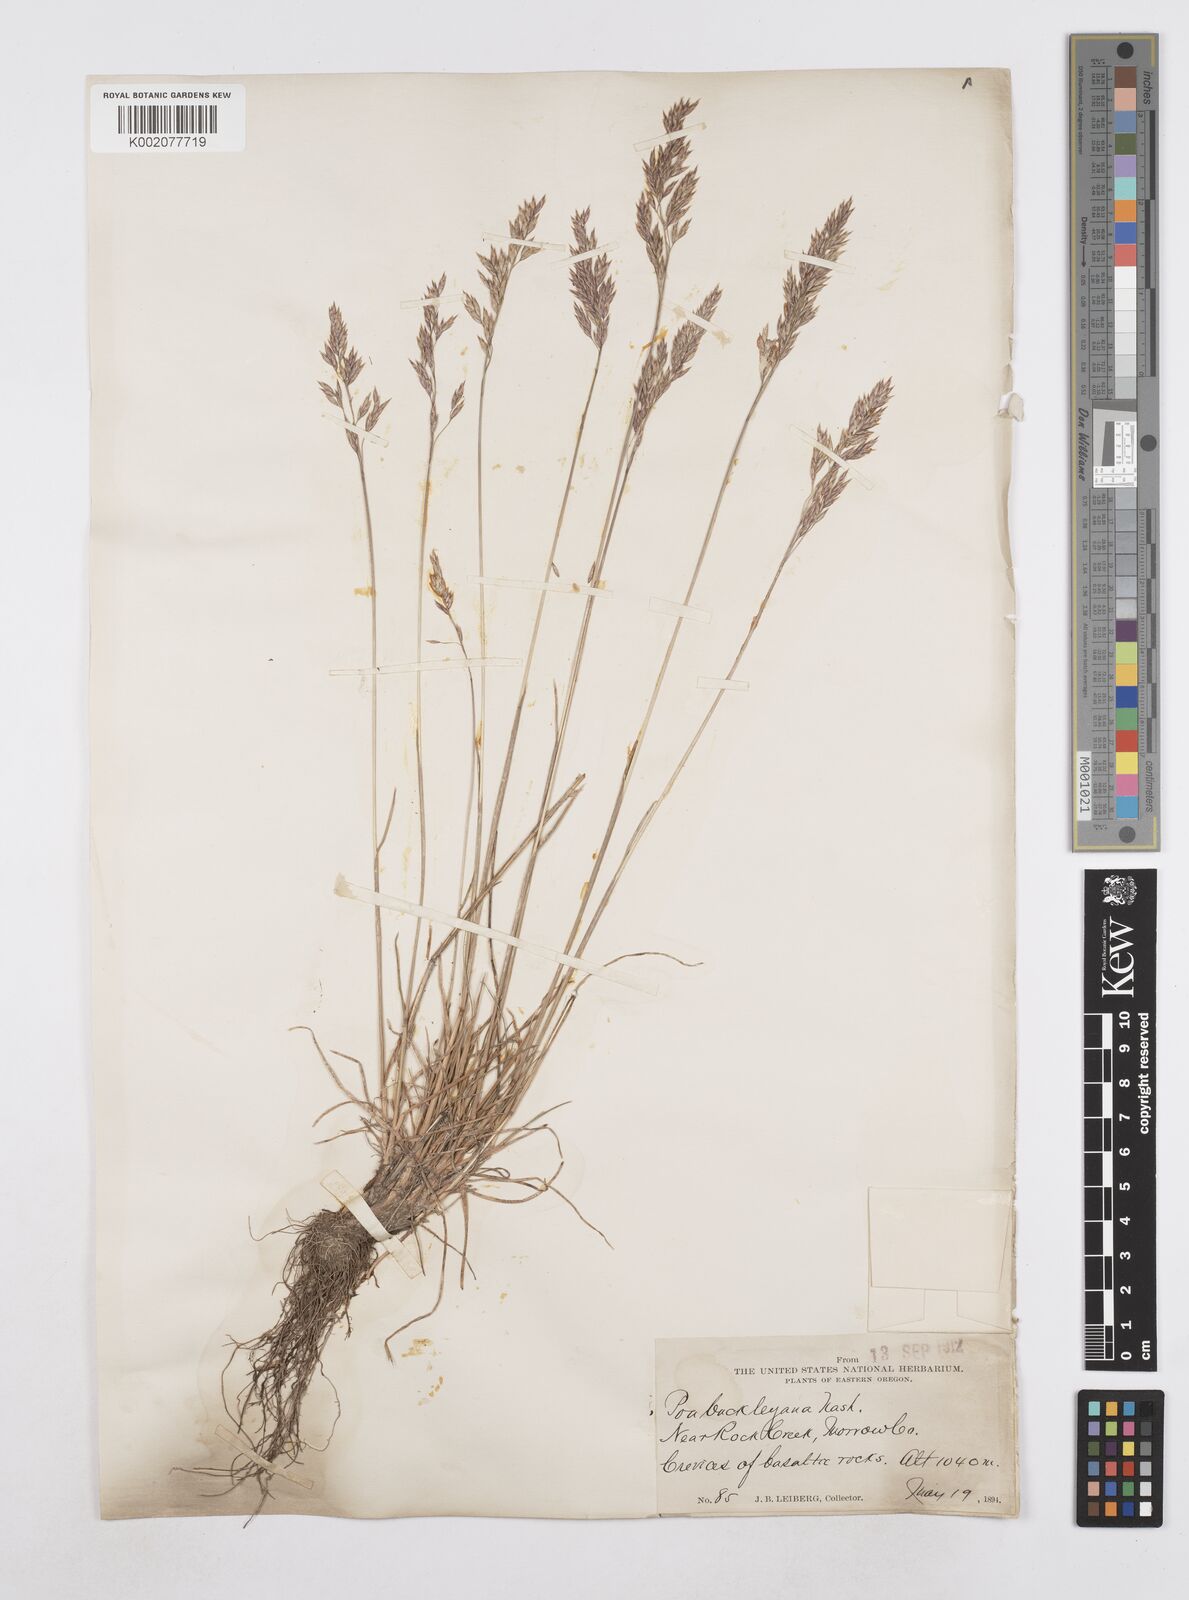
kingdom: Plantae
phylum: Tracheophyta
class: Liliopsida
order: Poales
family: Poaceae
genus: Poa
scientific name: Poa secunda
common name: Sandberg bluegrass
